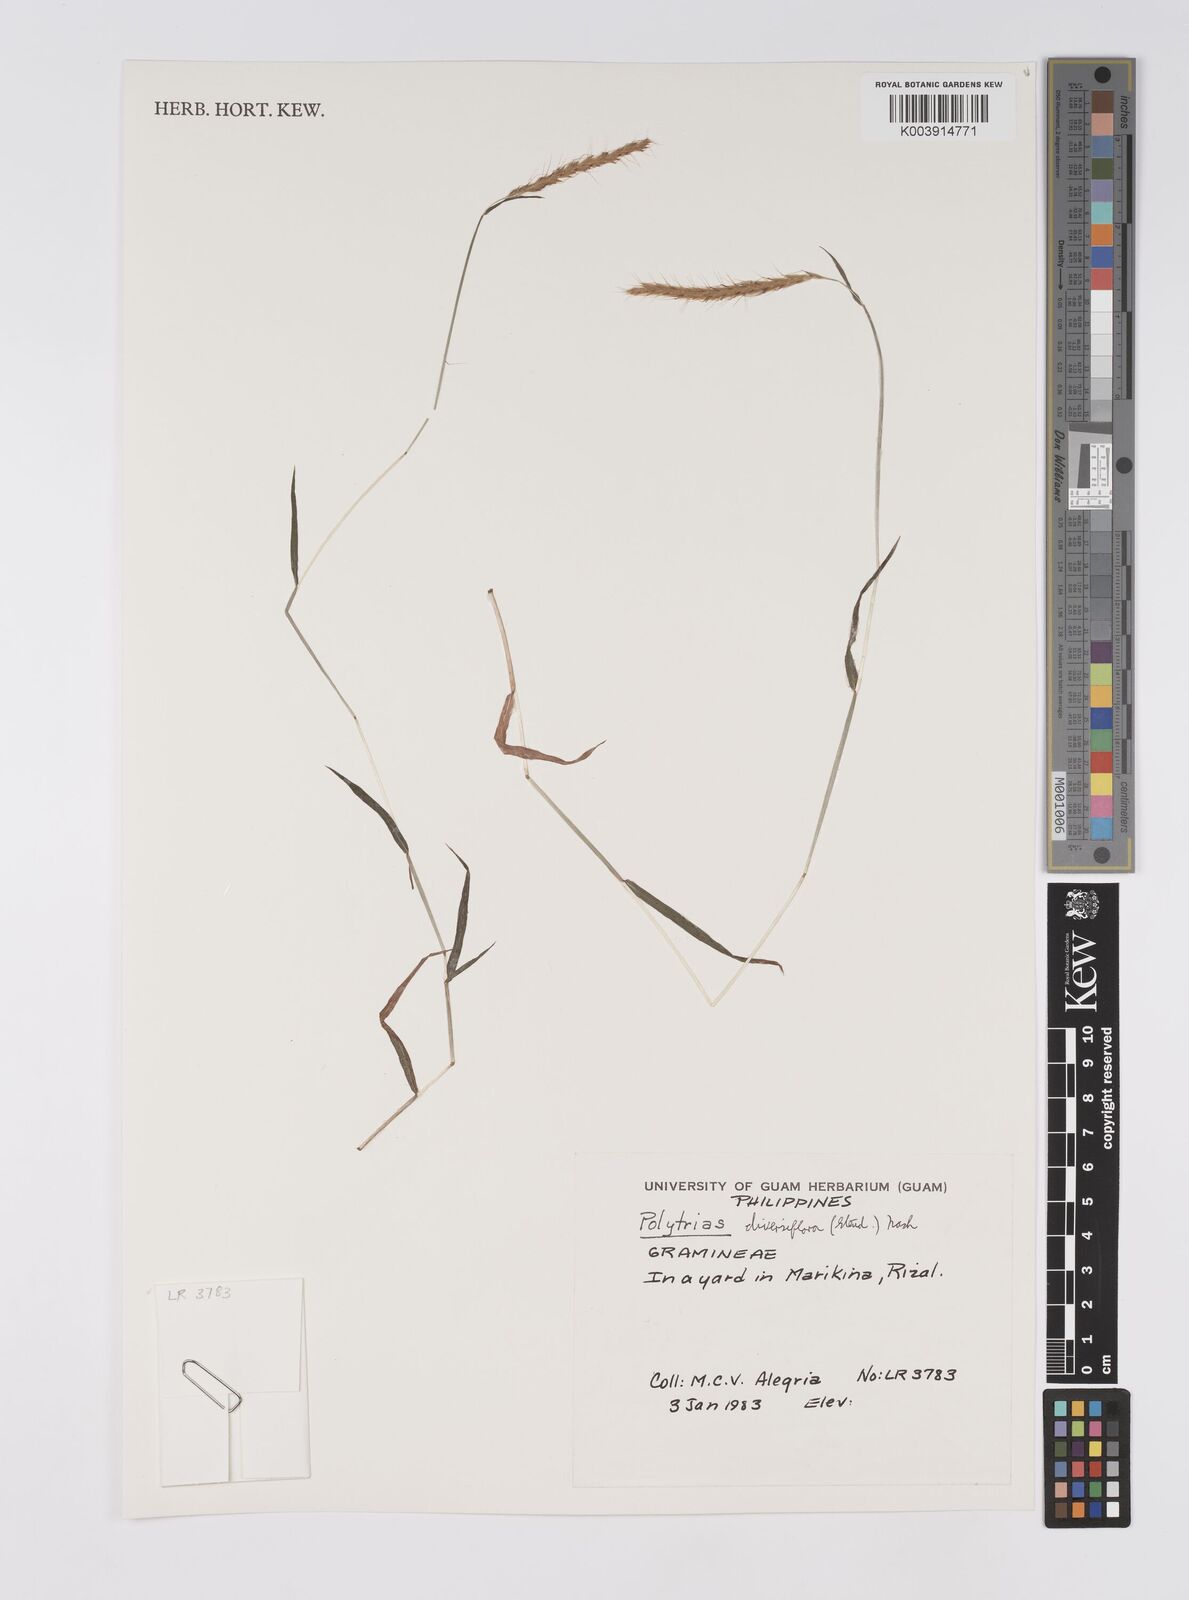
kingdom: Plantae
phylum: Tracheophyta
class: Liliopsida
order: Poales
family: Poaceae
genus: Polytrias
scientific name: Polytrias indica
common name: Indian murainagrass
